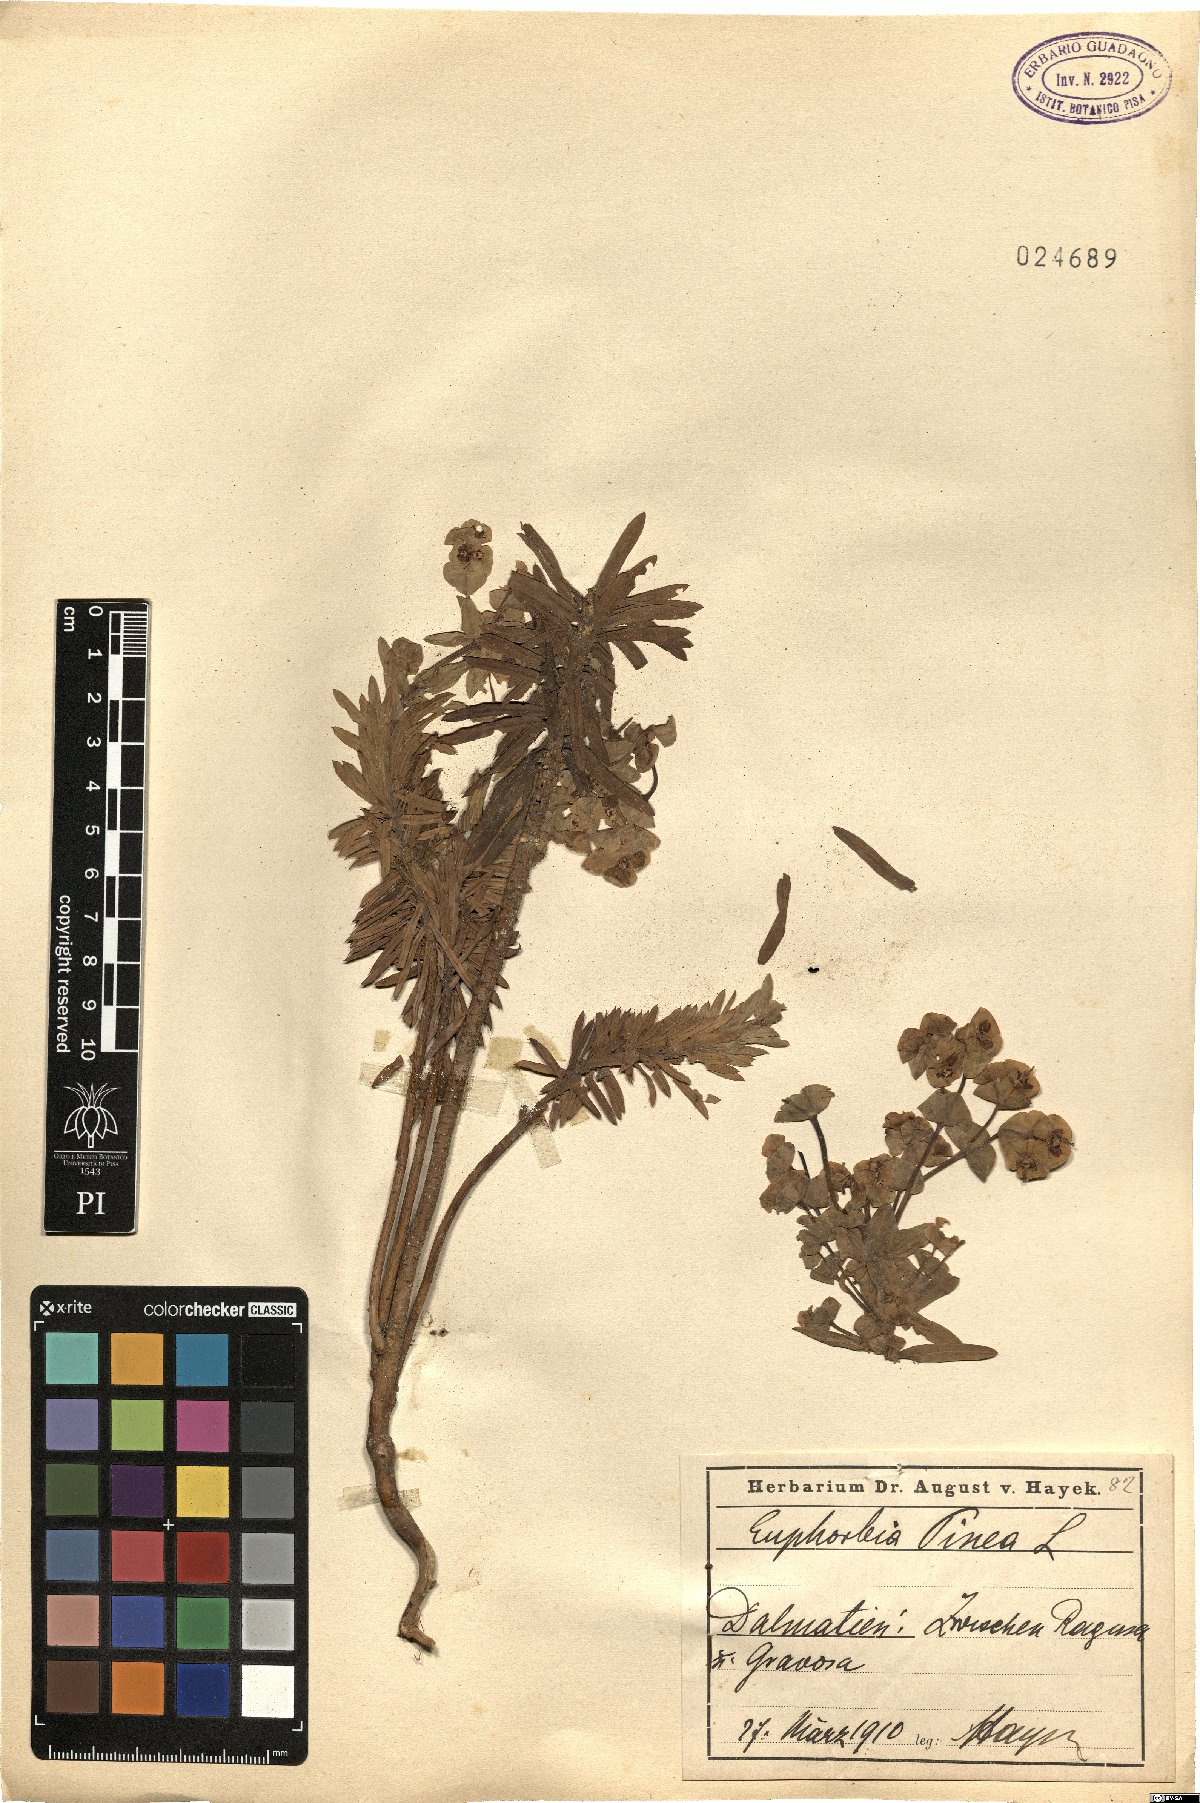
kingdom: Plantae
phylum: Tracheophyta
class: Magnoliopsida
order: Malpighiales
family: Euphorbiaceae
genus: Euphorbia
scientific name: Euphorbia segetalis
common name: Corn spurge
